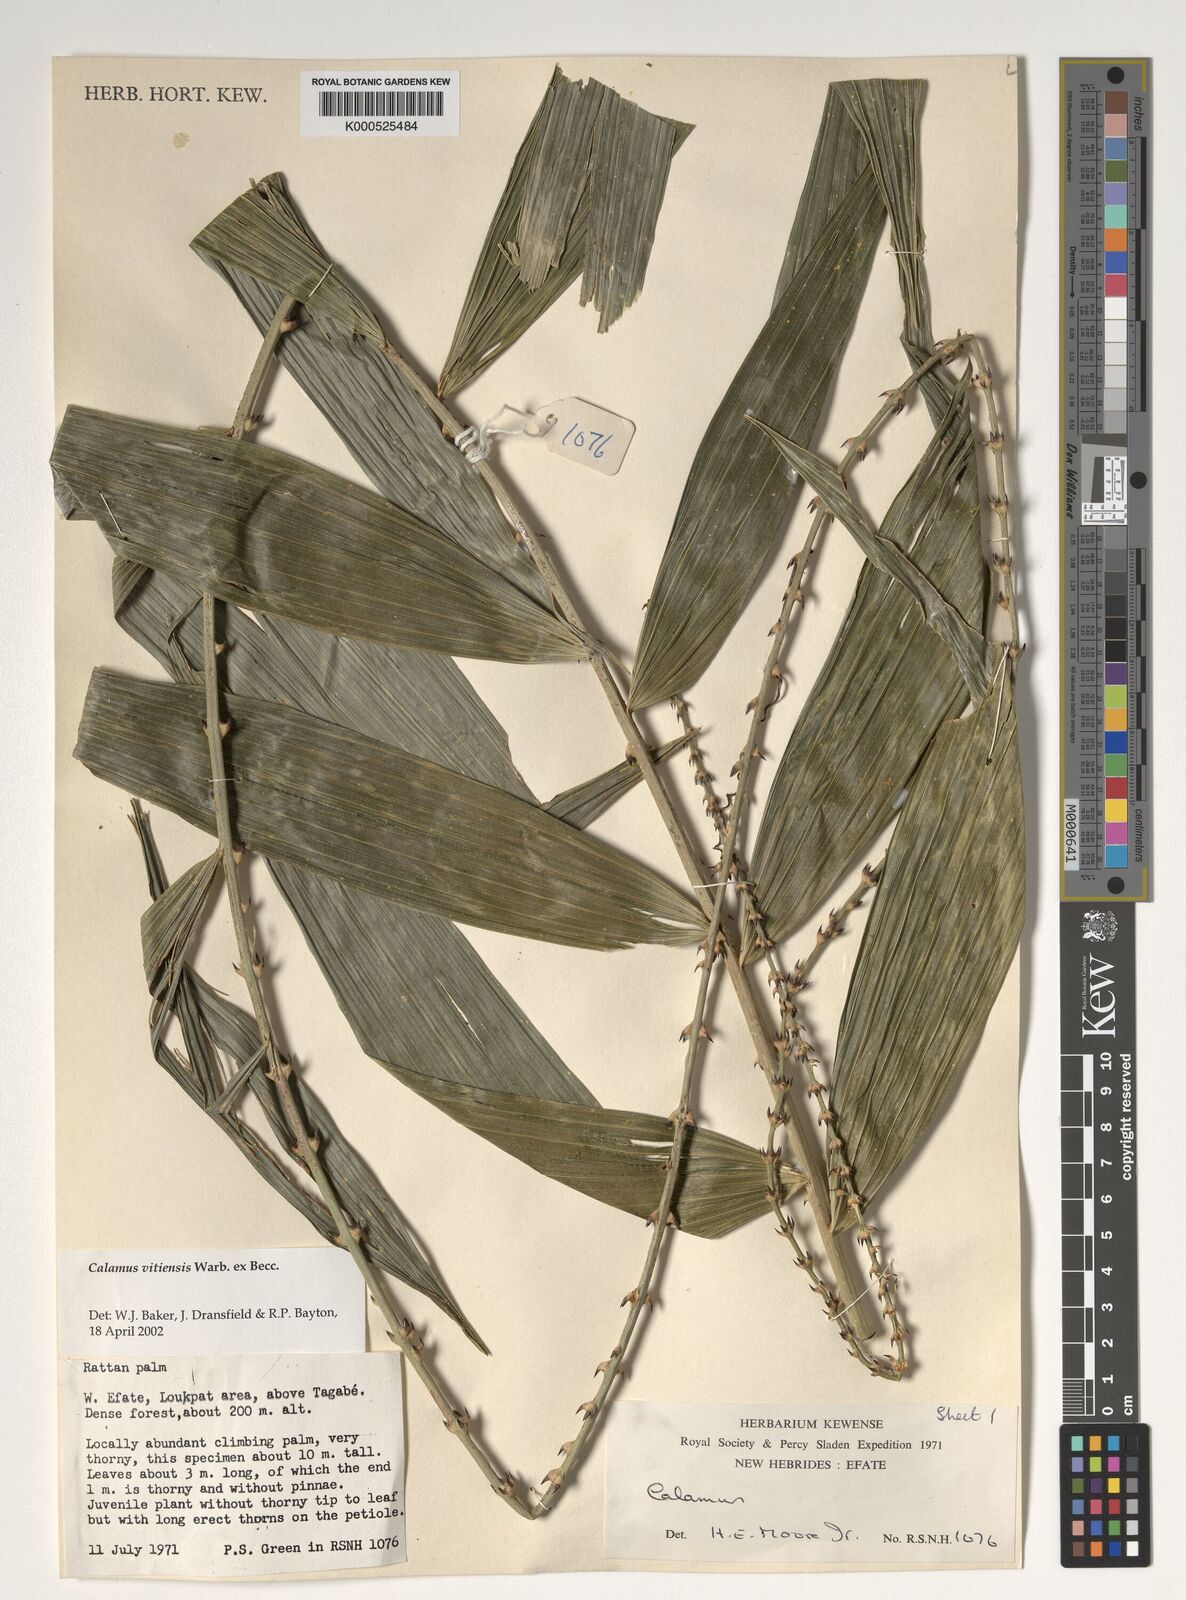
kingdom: Plantae
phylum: Tracheophyta
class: Liliopsida
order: Arecales
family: Arecaceae
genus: Calamus
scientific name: Calamus vitiensis
